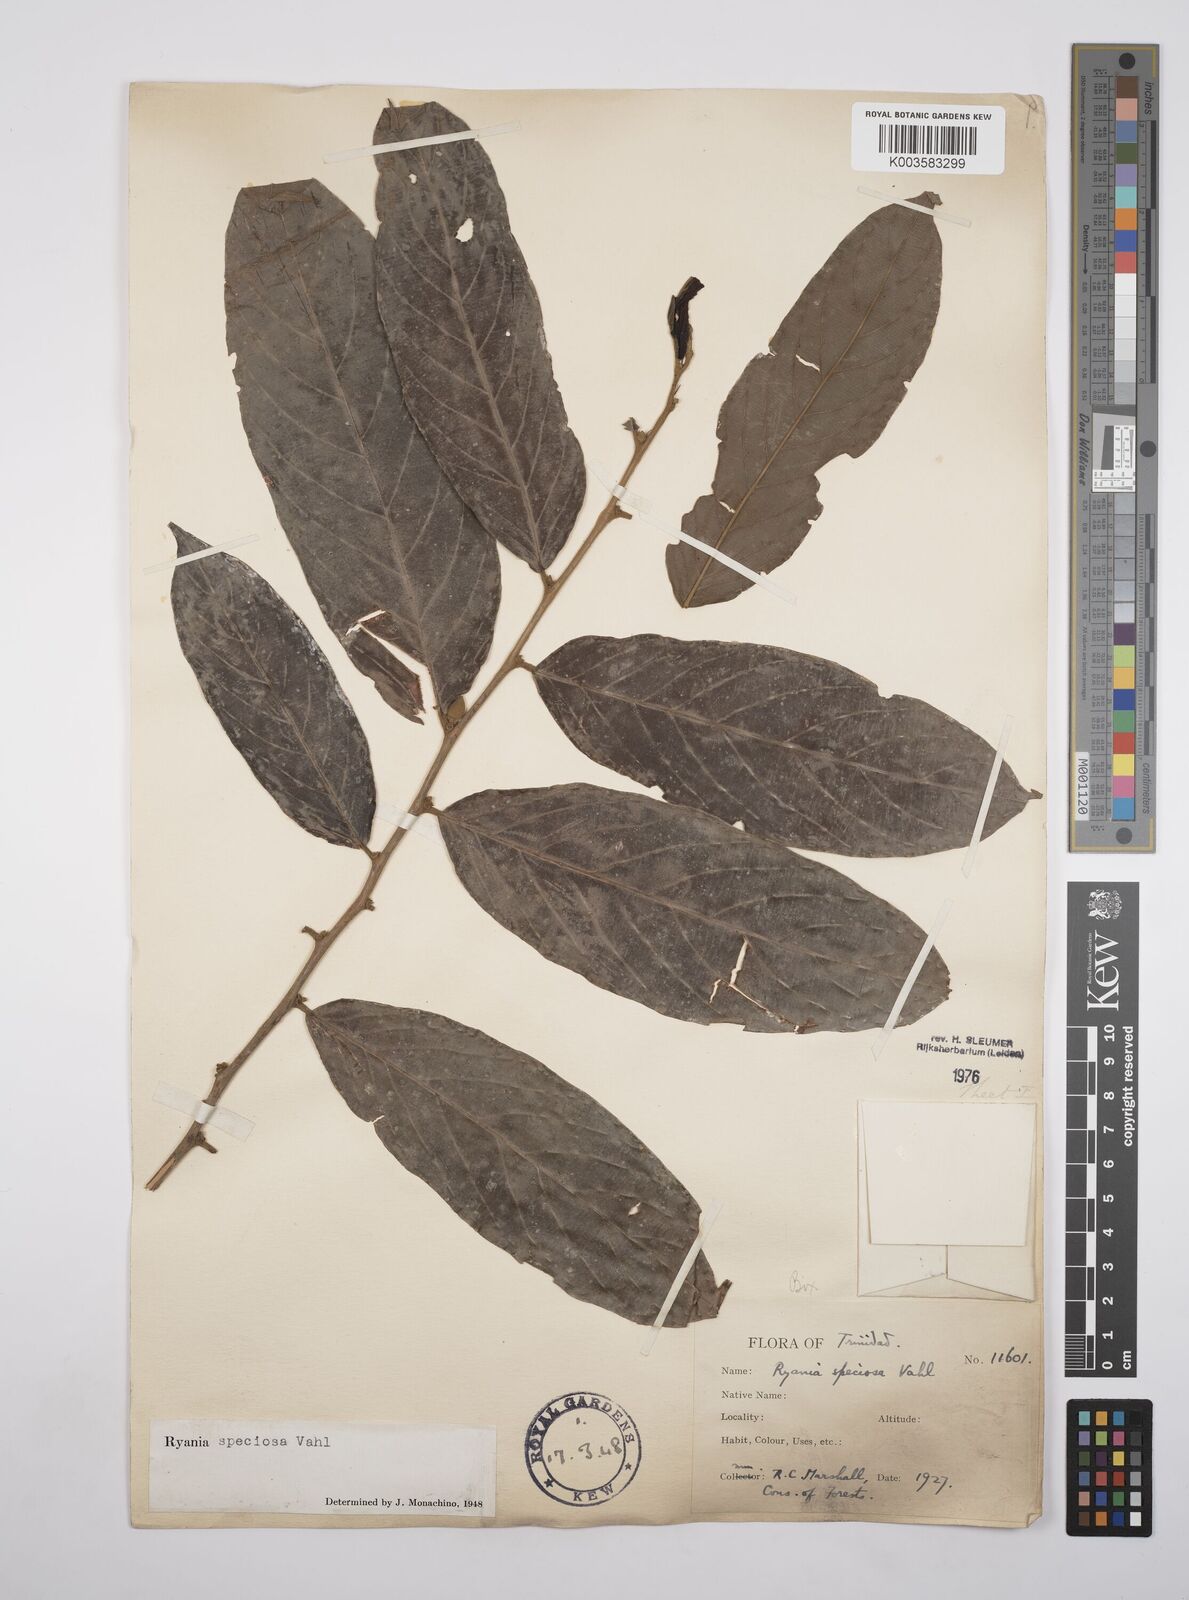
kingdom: Plantae
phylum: Tracheophyta
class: Magnoliopsida
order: Malpighiales
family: Salicaceae
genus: Ryania
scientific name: Ryania speciosa
